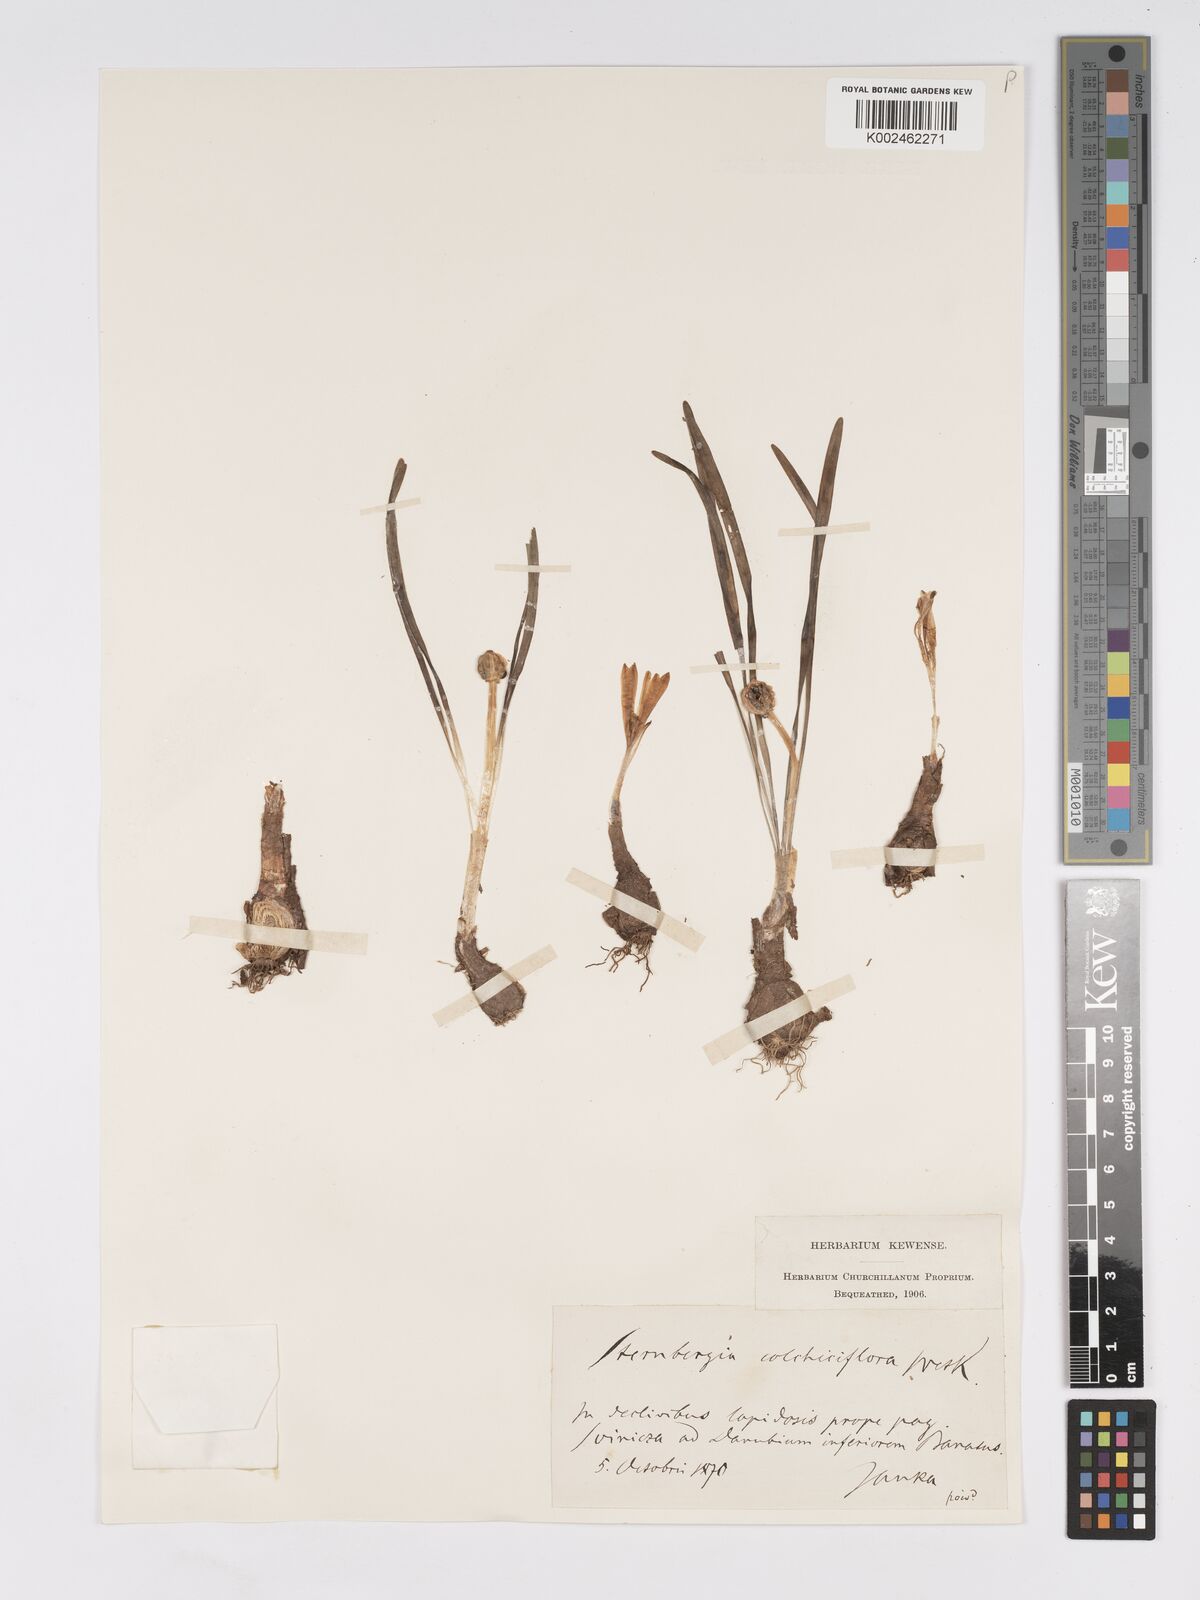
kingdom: Plantae
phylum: Tracheophyta
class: Liliopsida
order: Asparagales
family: Amaryllidaceae
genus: Sternbergia
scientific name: Sternbergia colchiciflora
